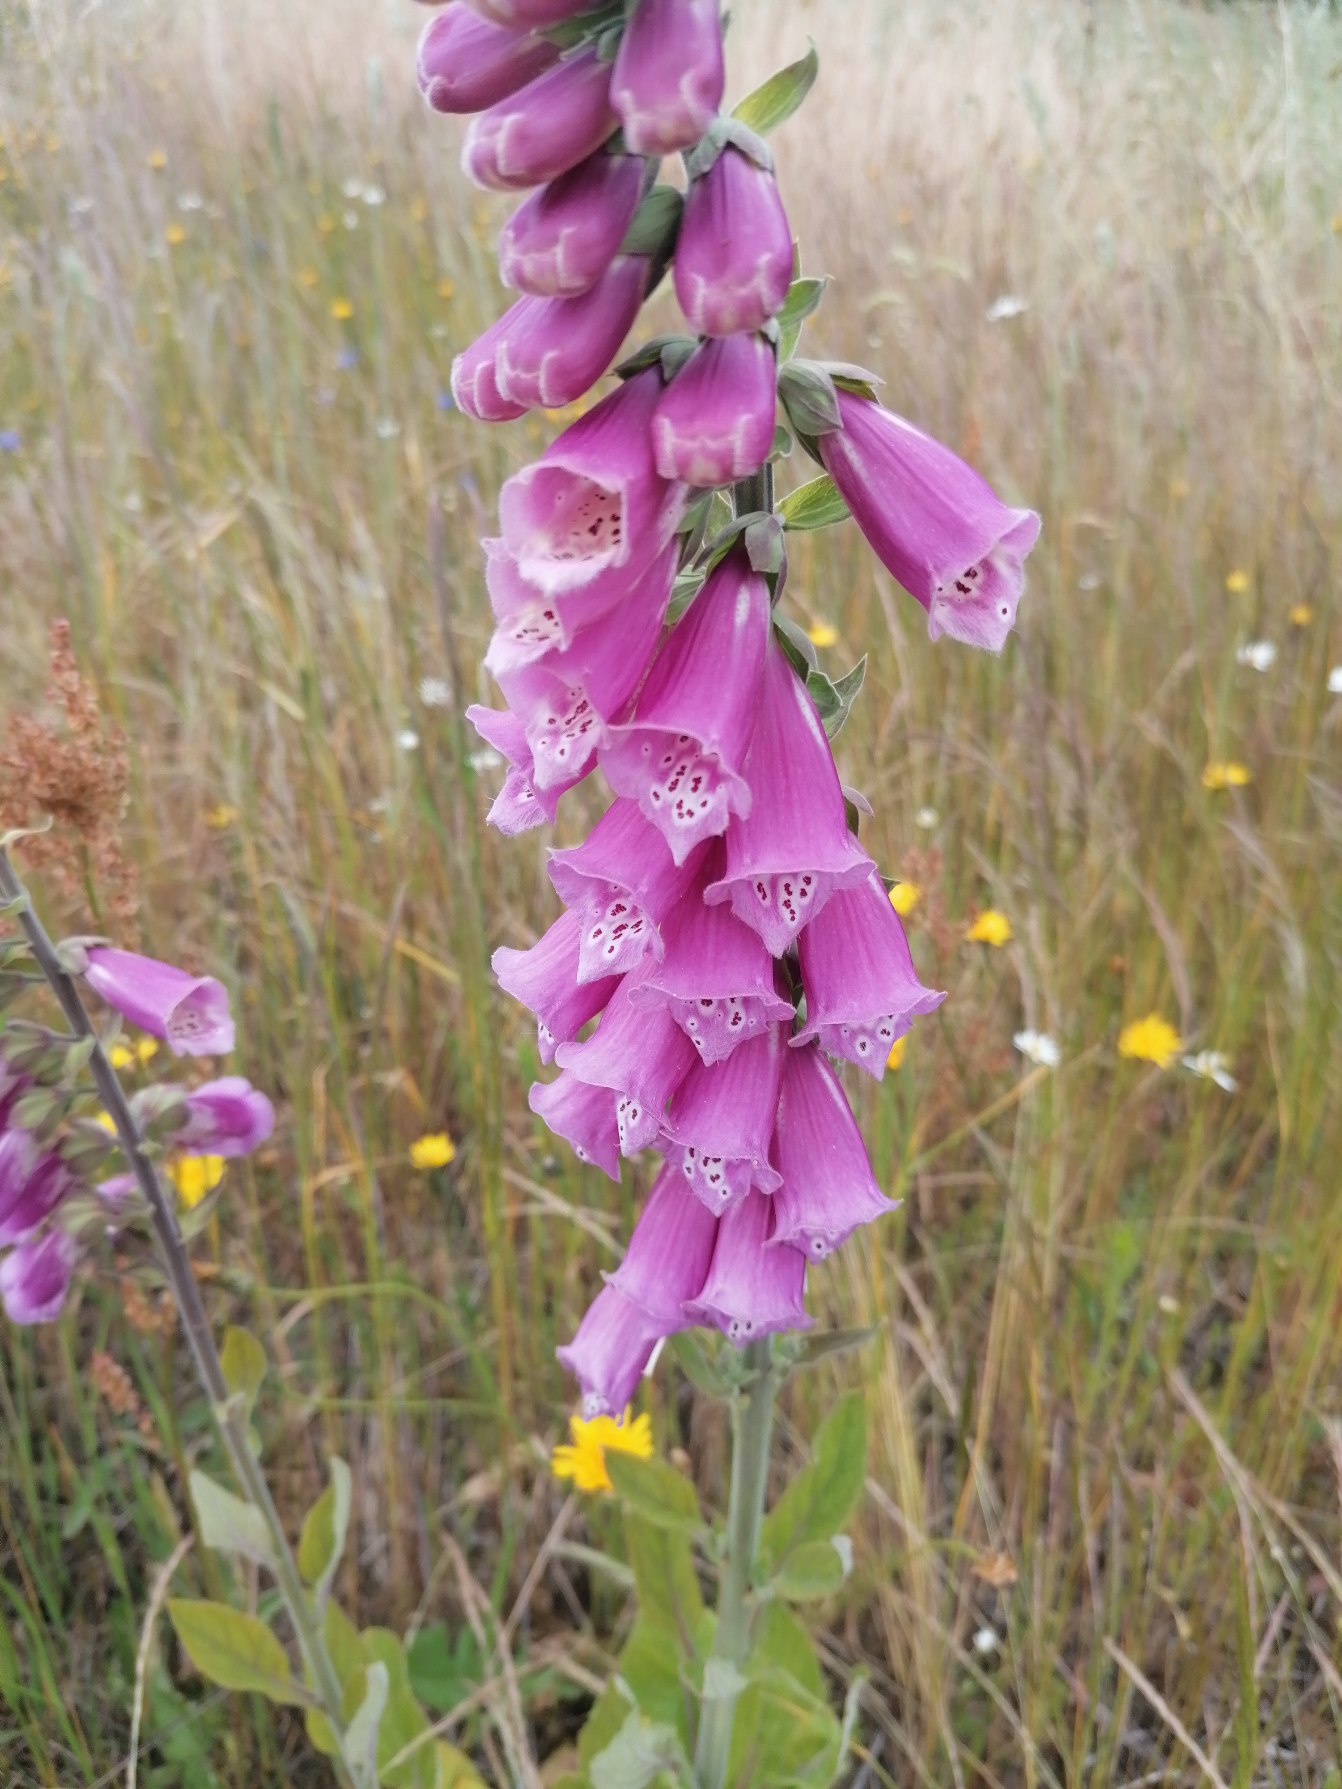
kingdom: Plantae
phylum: Tracheophyta
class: Magnoliopsida
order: Lamiales
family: Plantaginaceae
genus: Digitalis
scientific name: Digitalis purpurea
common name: Almindelig fingerbøl
